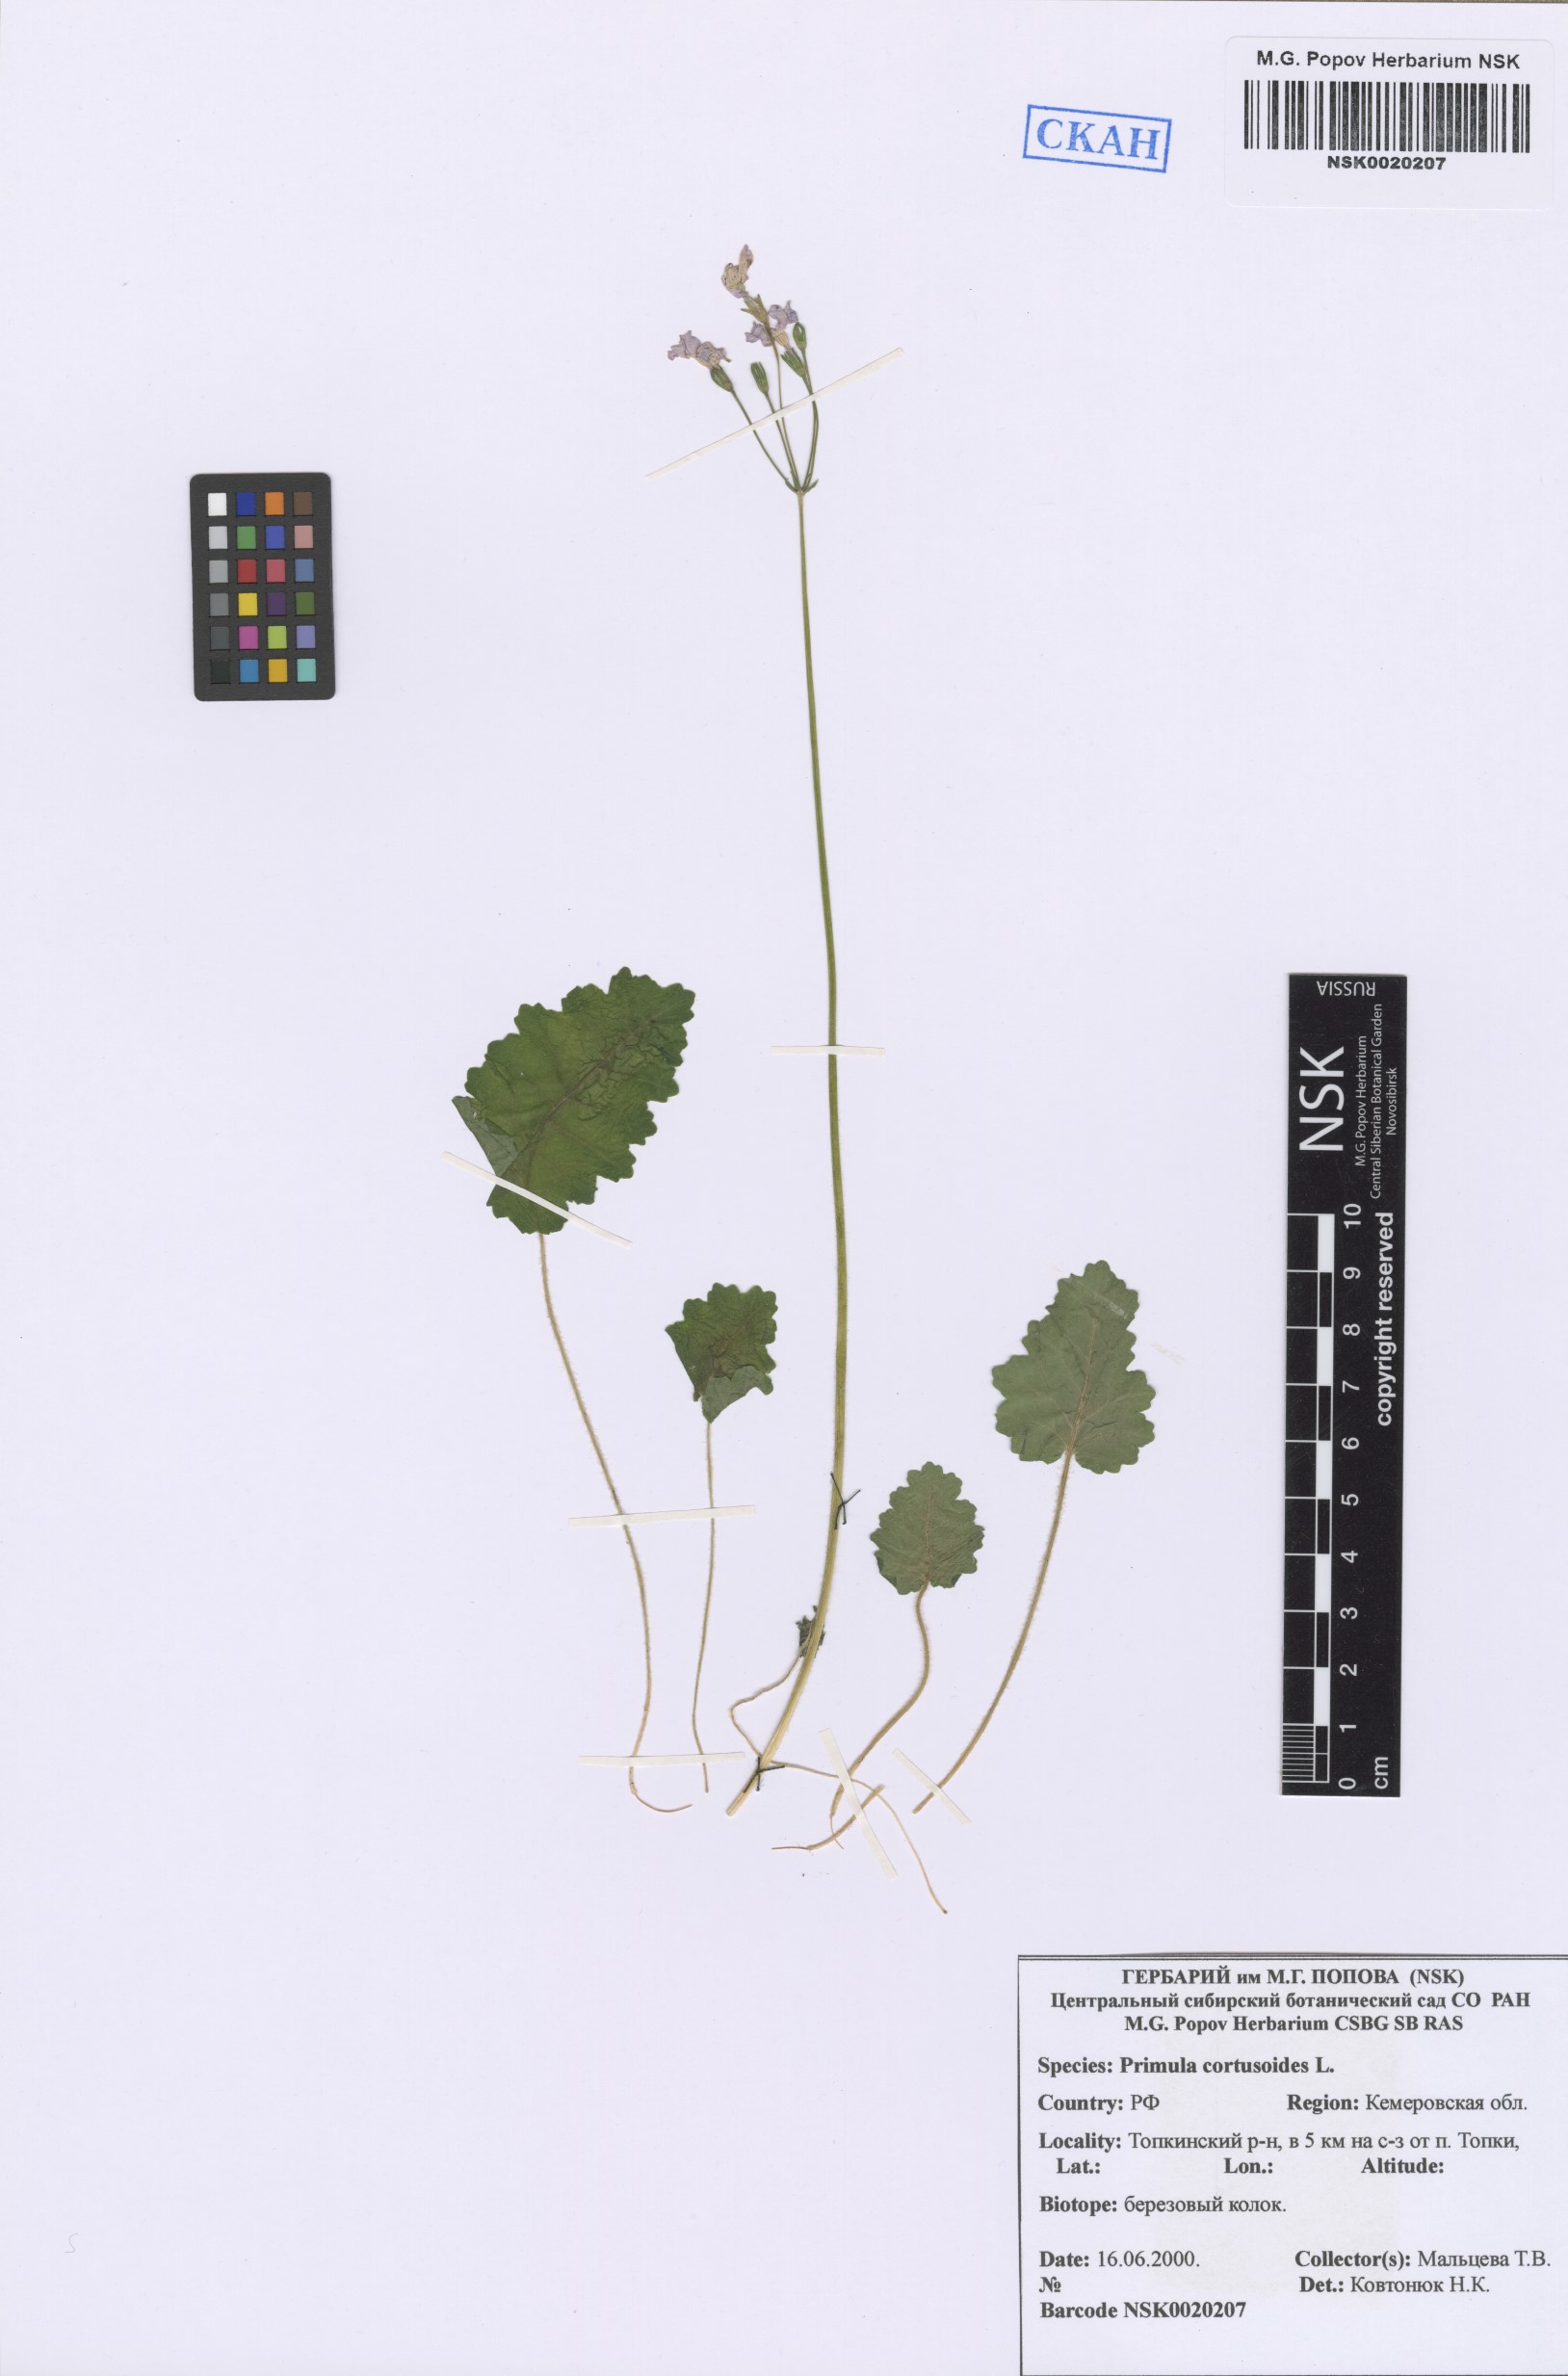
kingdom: Plantae
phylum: Tracheophyta
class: Magnoliopsida
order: Ericales
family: Primulaceae
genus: Primula
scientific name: Primula cortusoides
